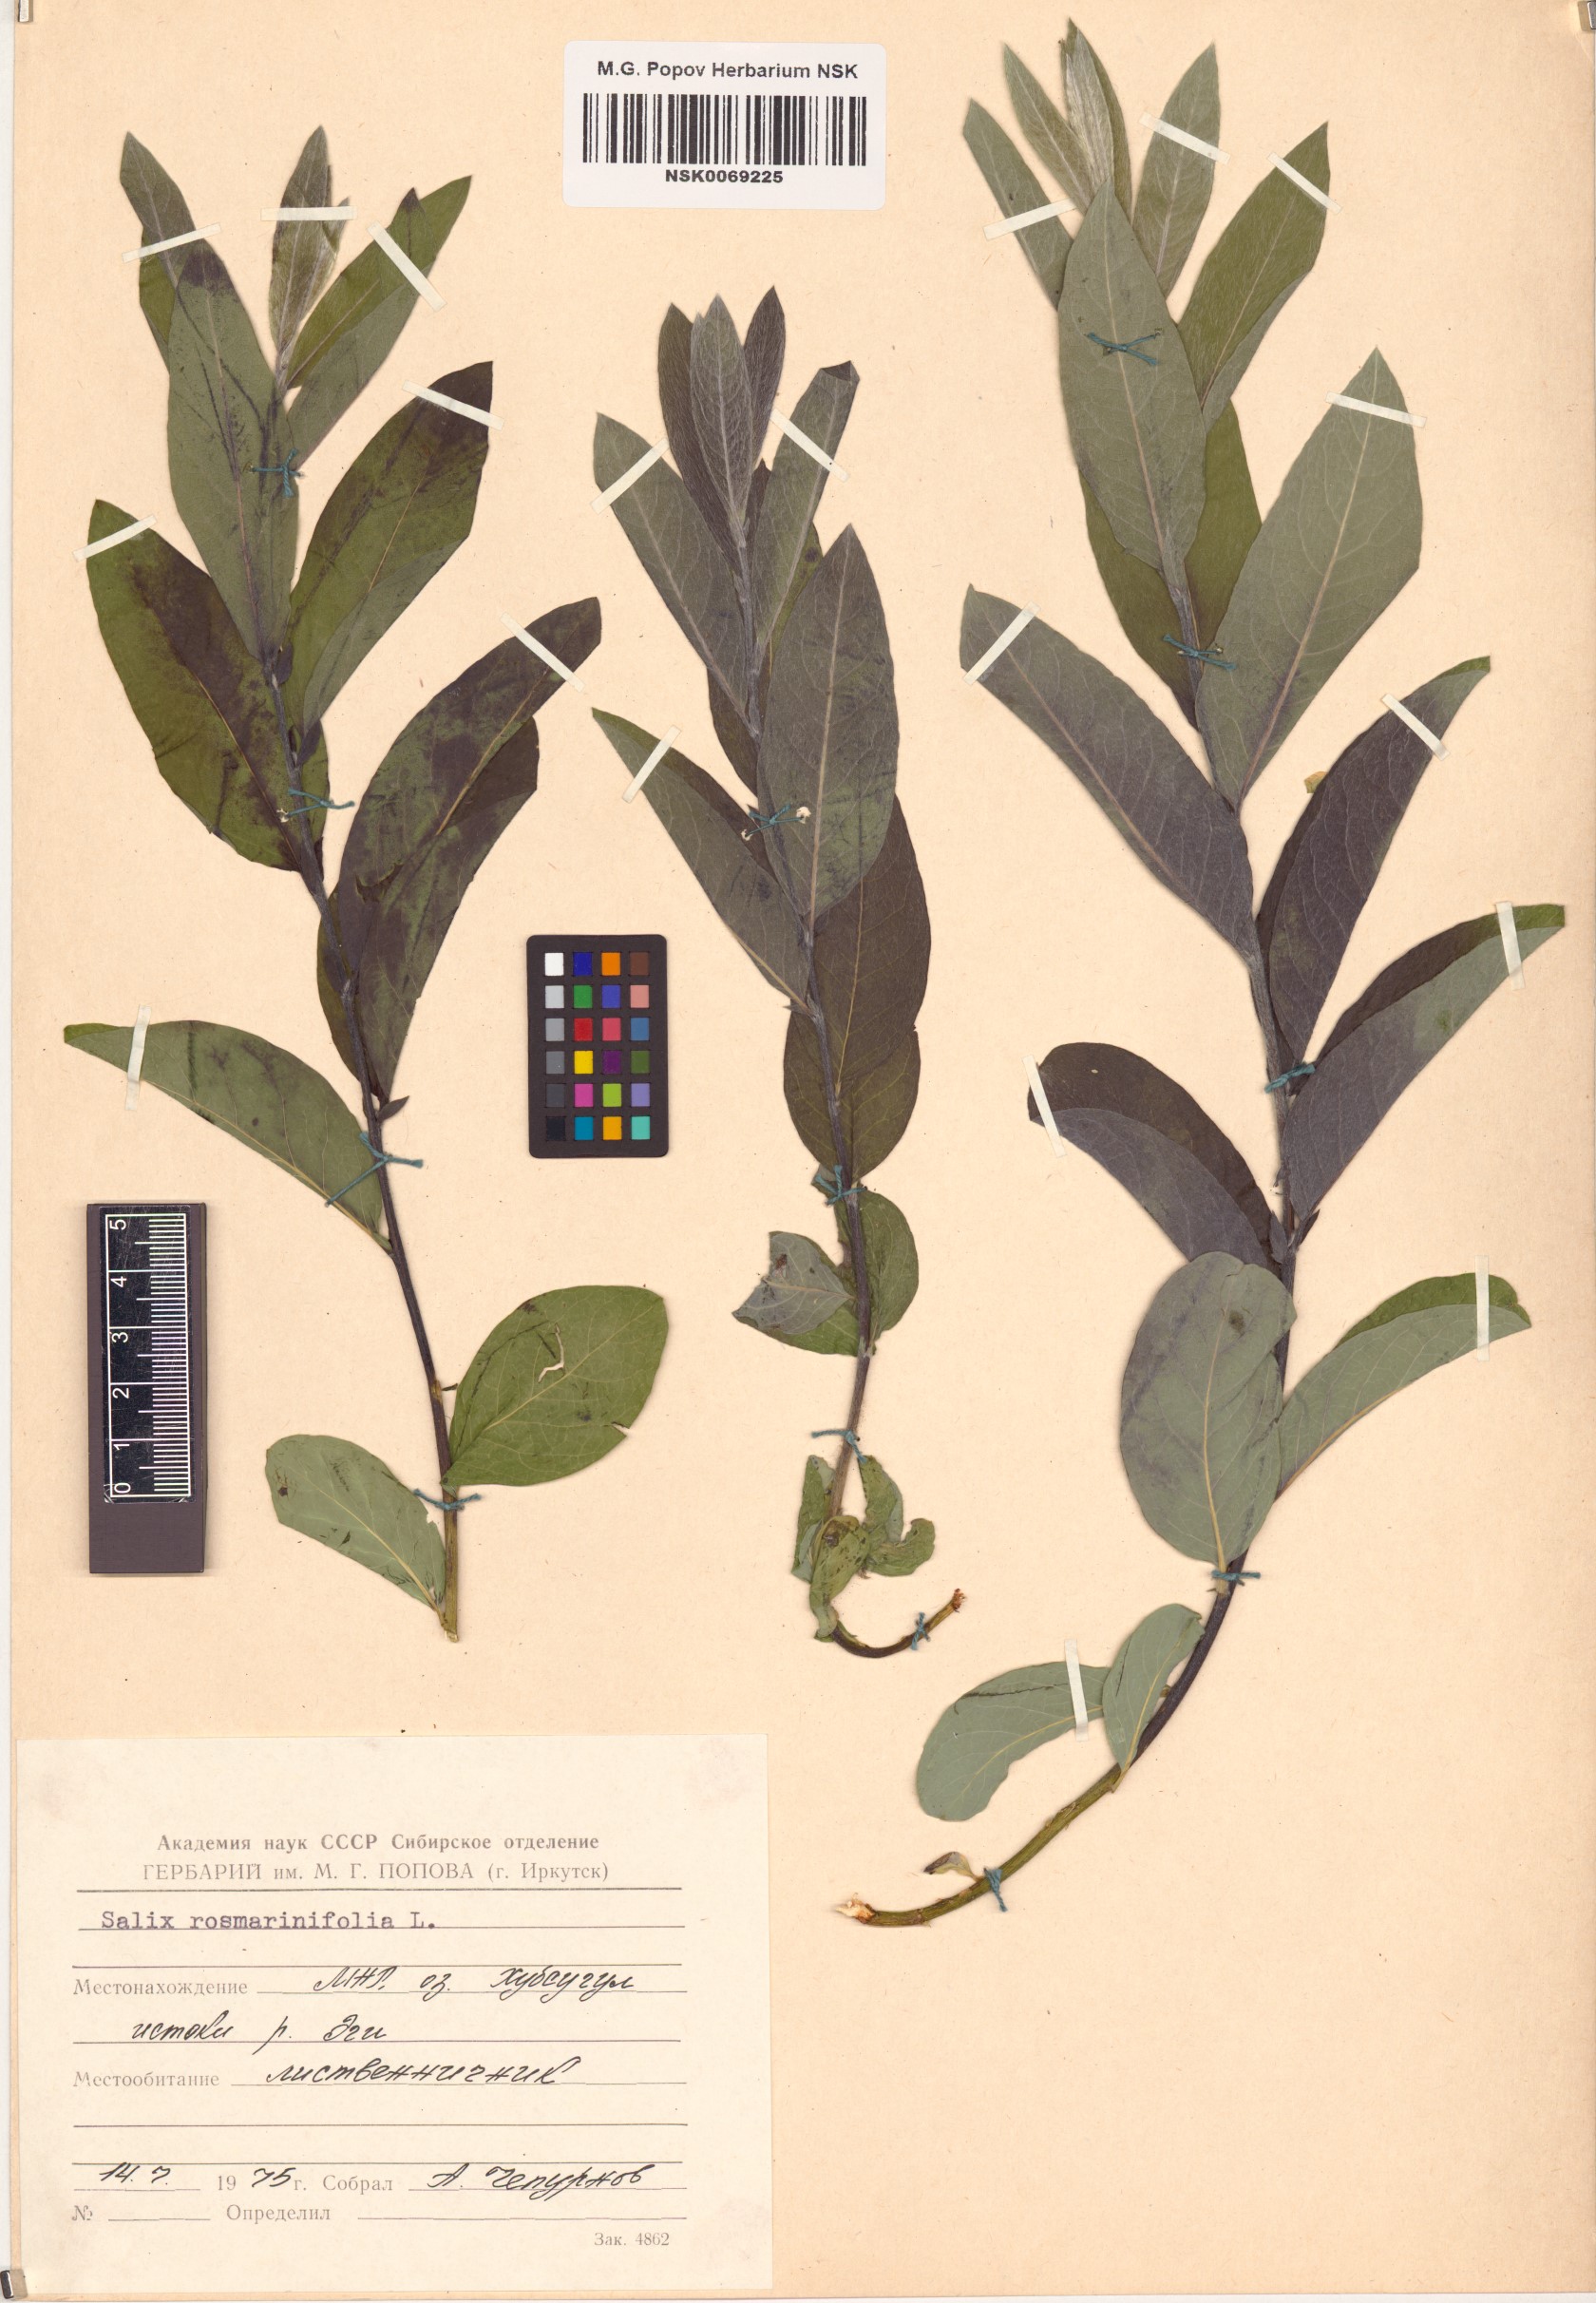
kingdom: Plantae
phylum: Tracheophyta
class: Magnoliopsida
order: Malpighiales
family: Salicaceae
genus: Salix
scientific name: Salix rosmarinifolia
